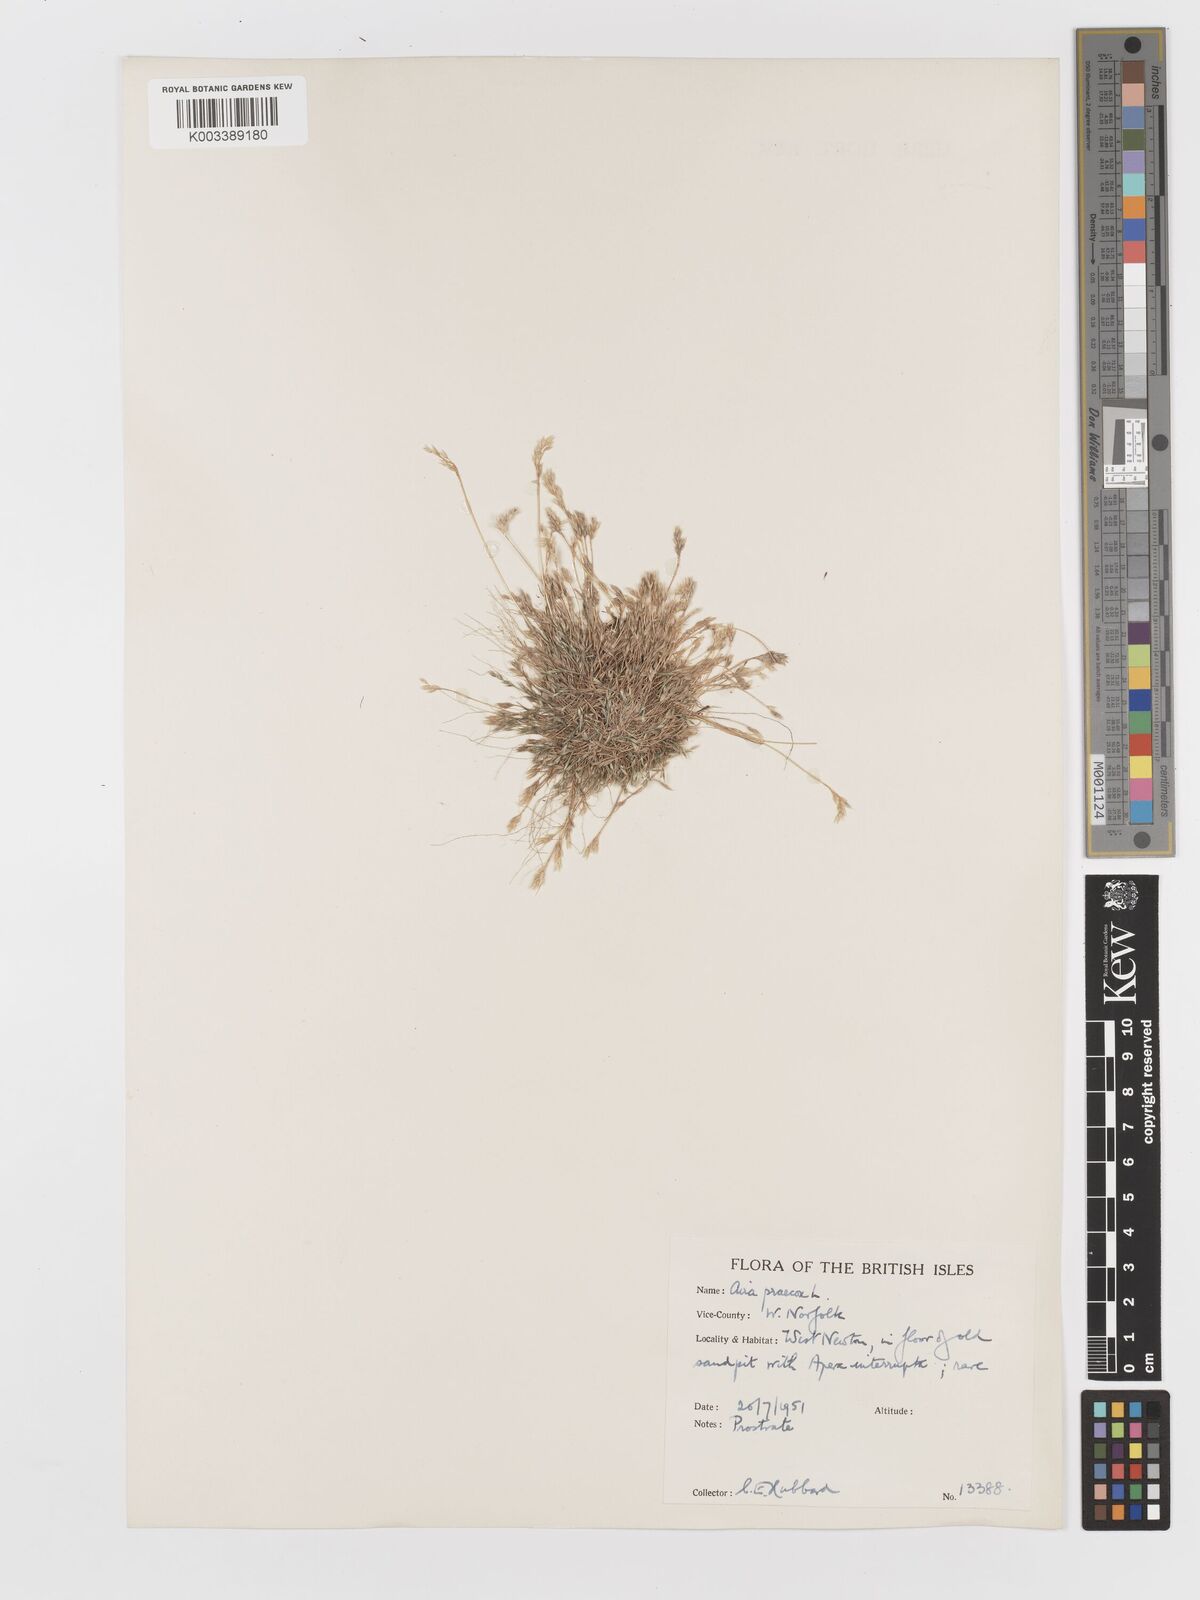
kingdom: Plantae
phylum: Tracheophyta
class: Liliopsida
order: Poales
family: Poaceae
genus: Aira
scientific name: Aira praecox
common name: Early hair-grass
